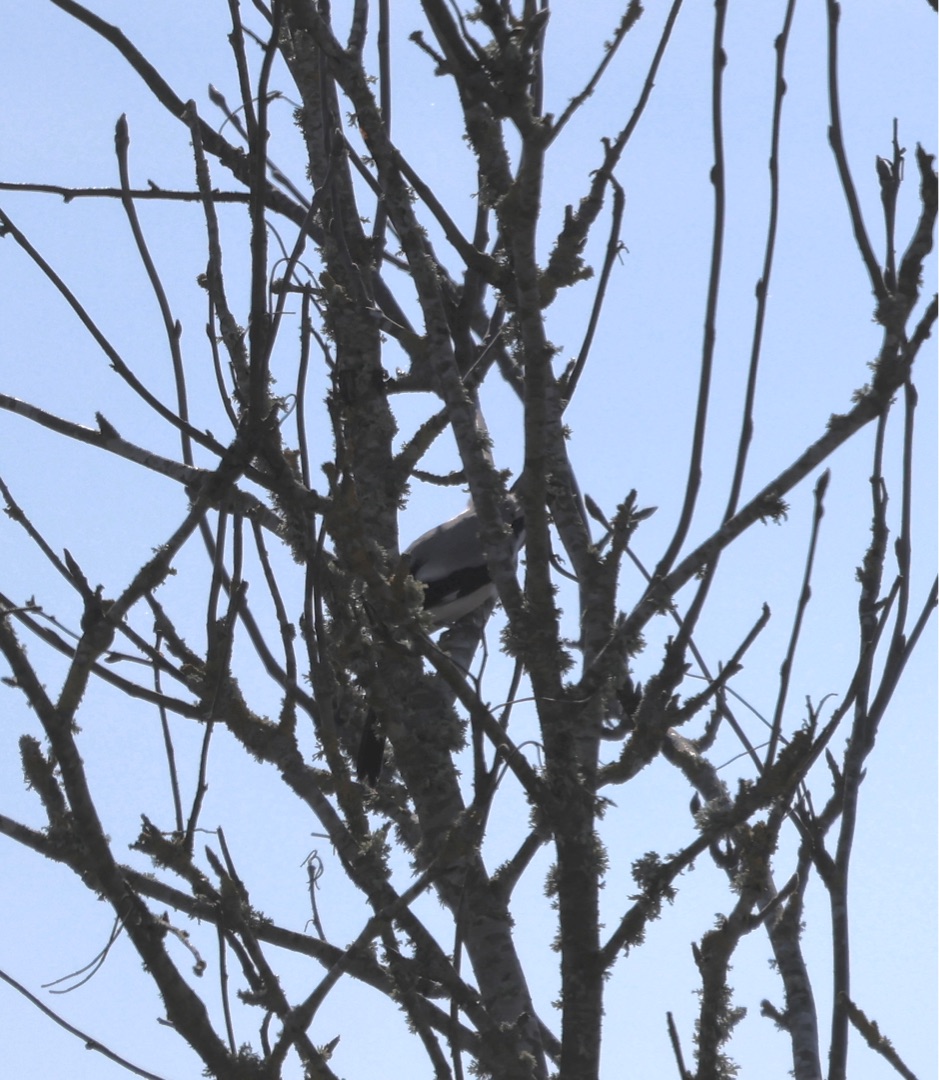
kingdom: Animalia
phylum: Chordata
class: Aves
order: Passeriformes
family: Laniidae
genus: Lanius
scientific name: Lanius excubitor
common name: Stor tornskade
